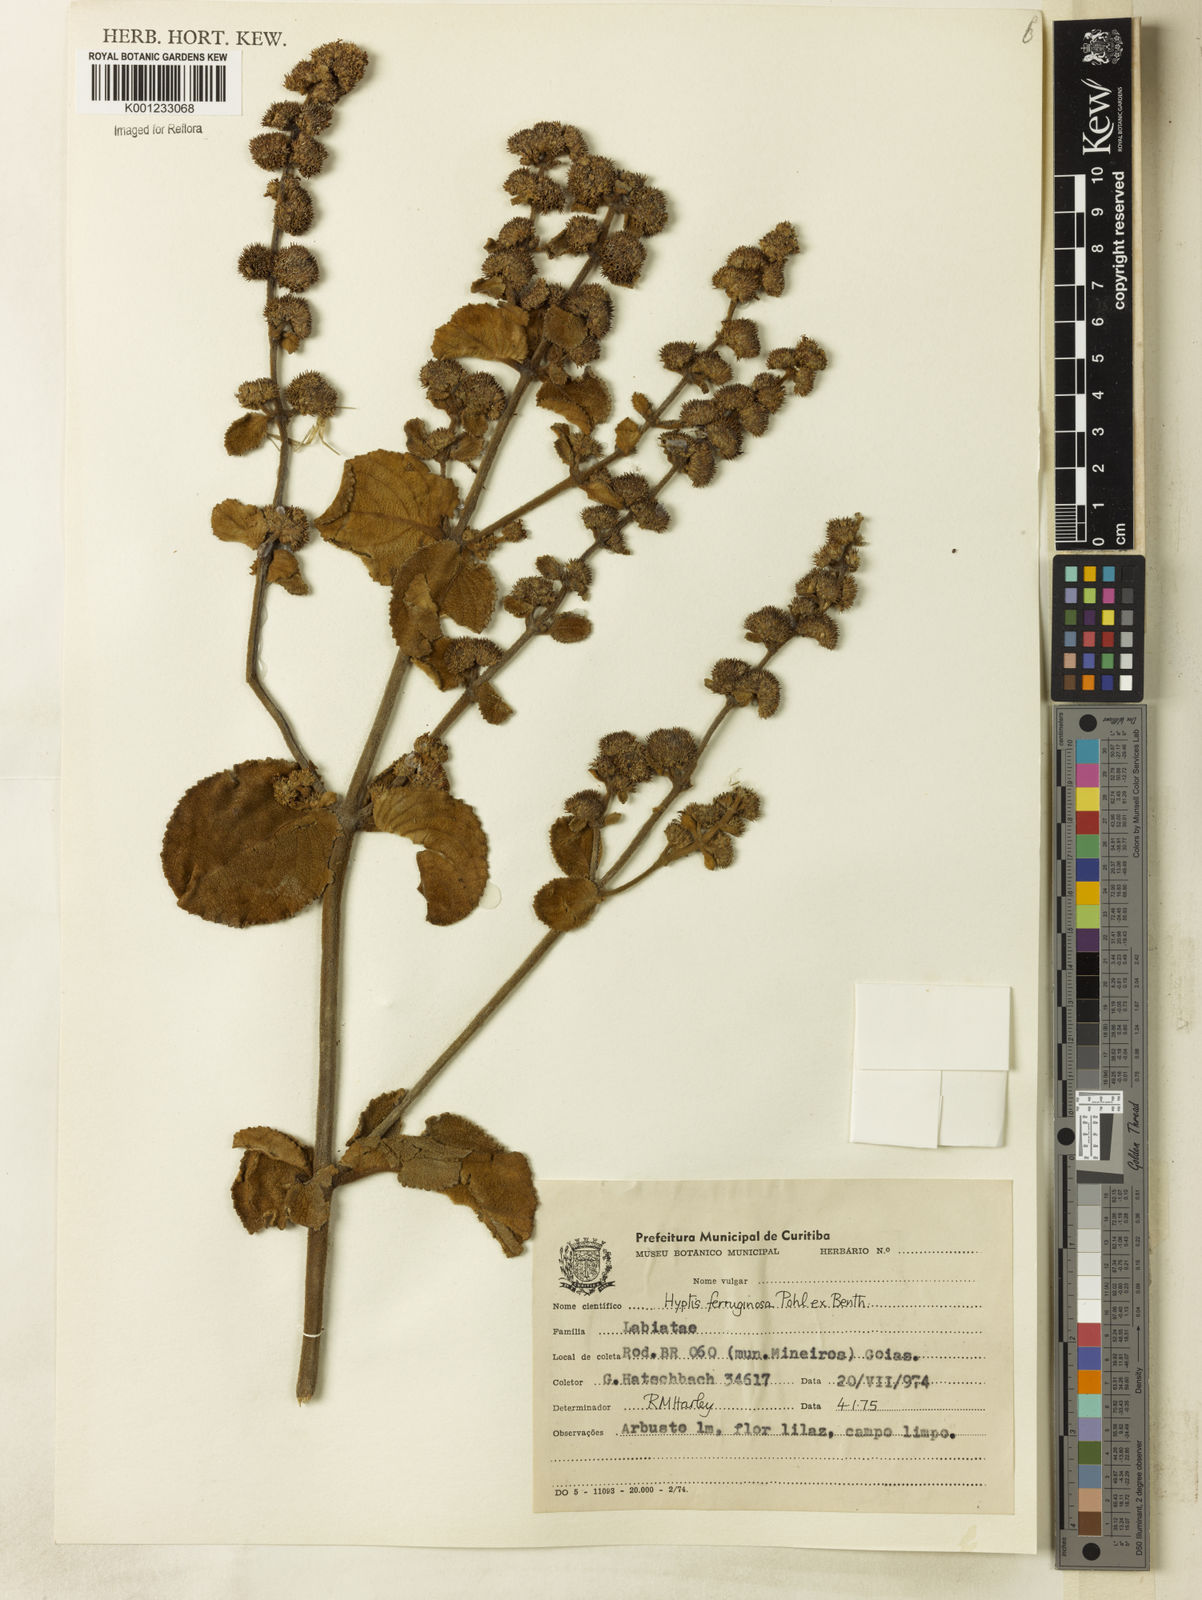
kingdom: Plantae
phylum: Tracheophyta
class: Magnoliopsida
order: Lamiales
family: Lamiaceae
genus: Hyptis
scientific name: Hyptis ferruginosa
